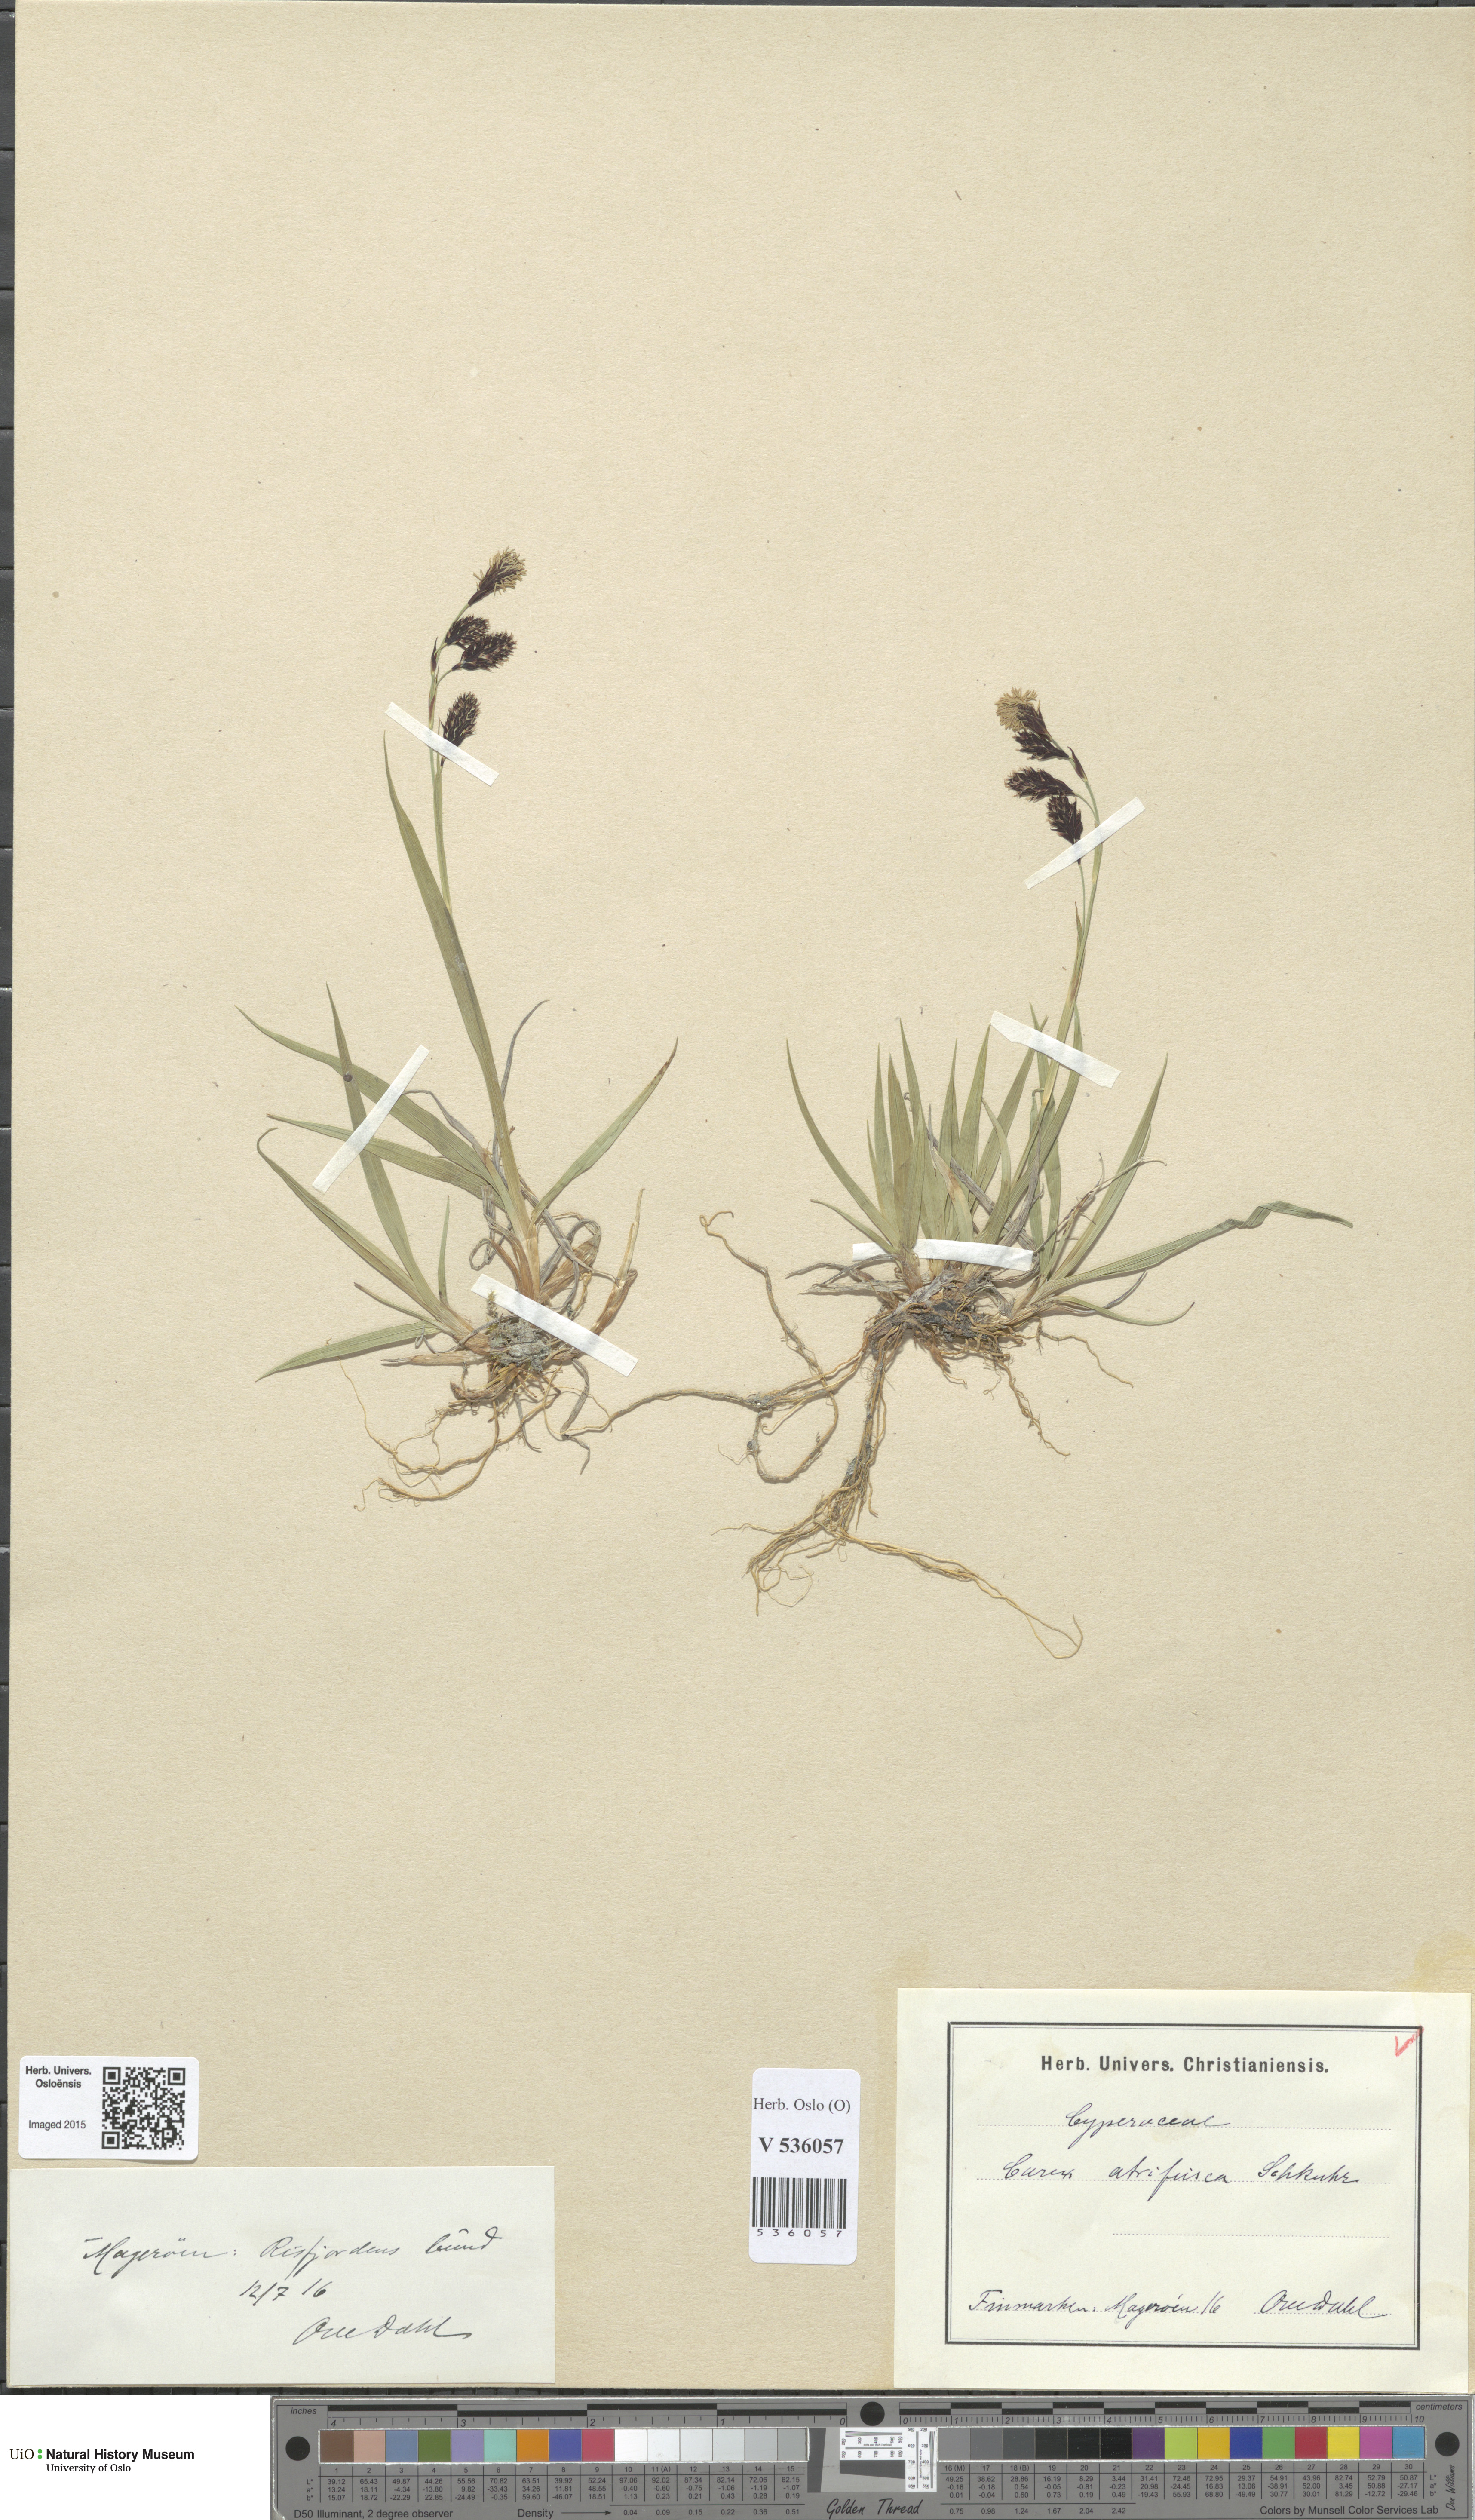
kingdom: Plantae
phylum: Tracheophyta
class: Liliopsida
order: Poales
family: Cyperaceae
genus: Carex
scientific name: Carex atrofusca
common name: Scorched alpine-sedge
